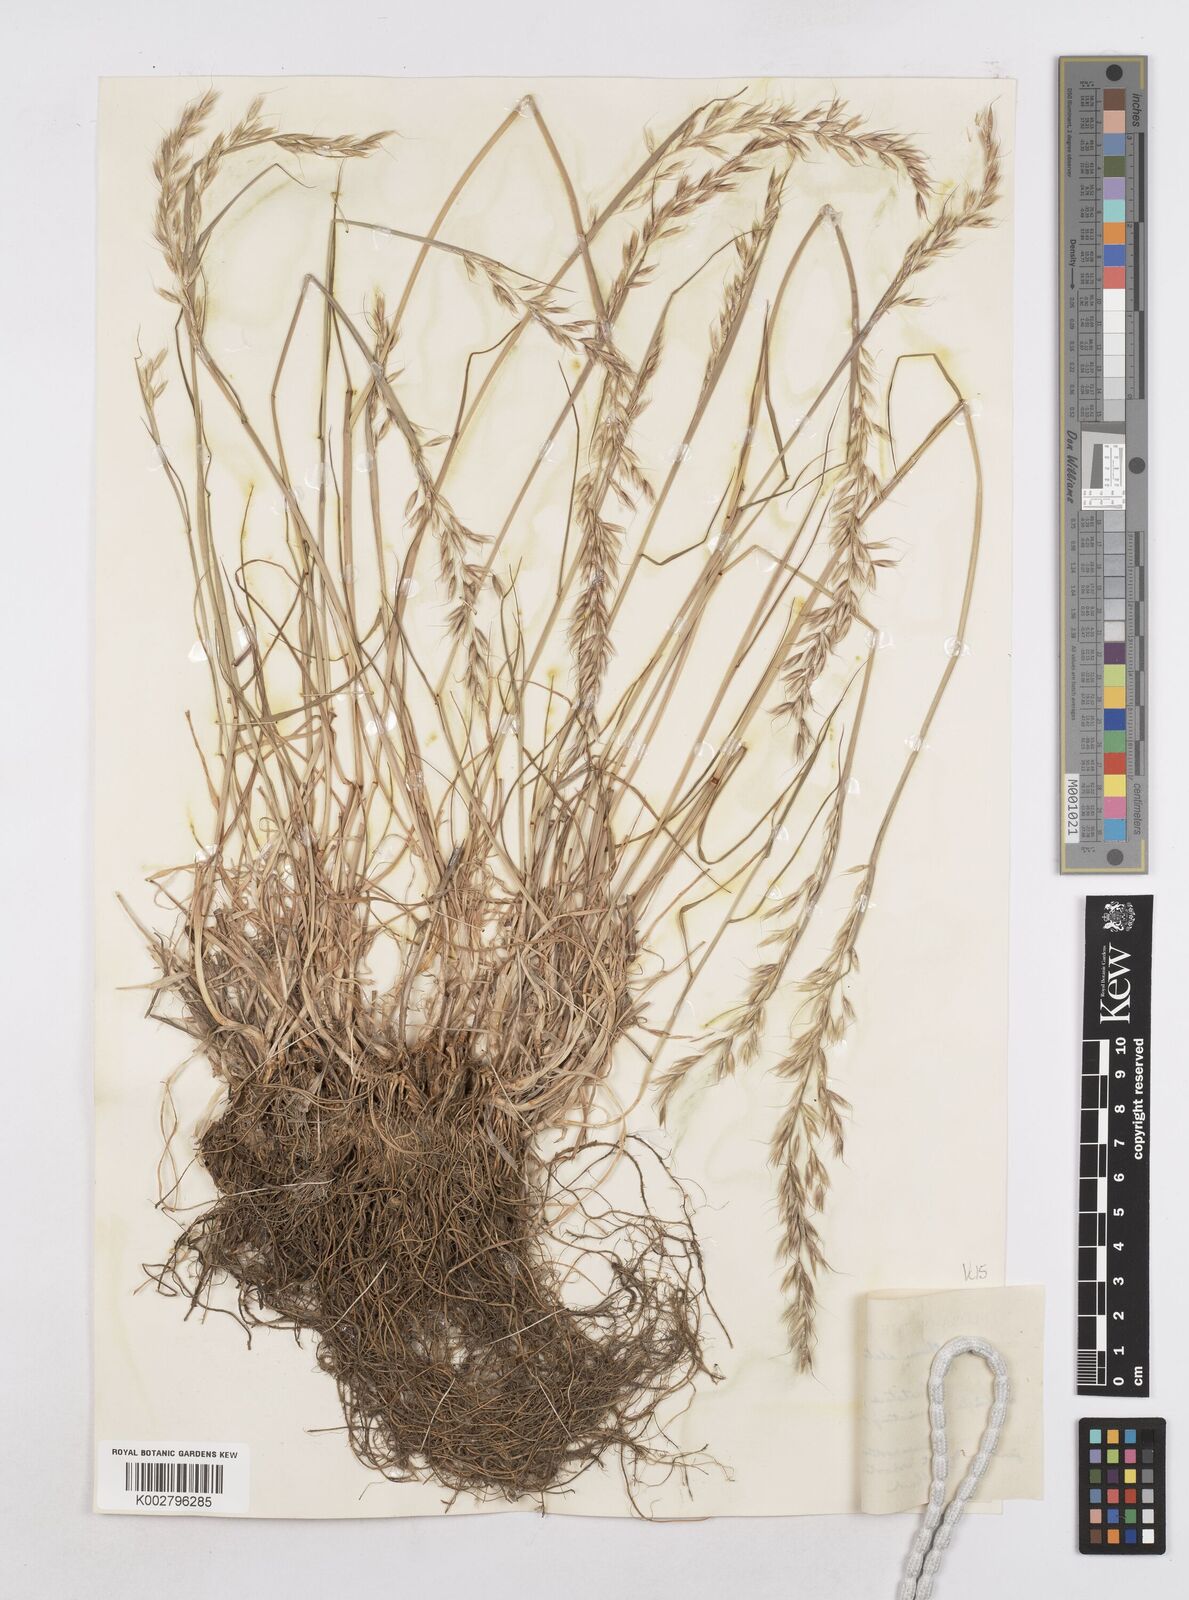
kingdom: Plantae
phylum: Tracheophyta
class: Liliopsida
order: Poales
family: Poaceae
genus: Arrhenatherum
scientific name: Arrhenatherum elatius
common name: Tall oatgrass
